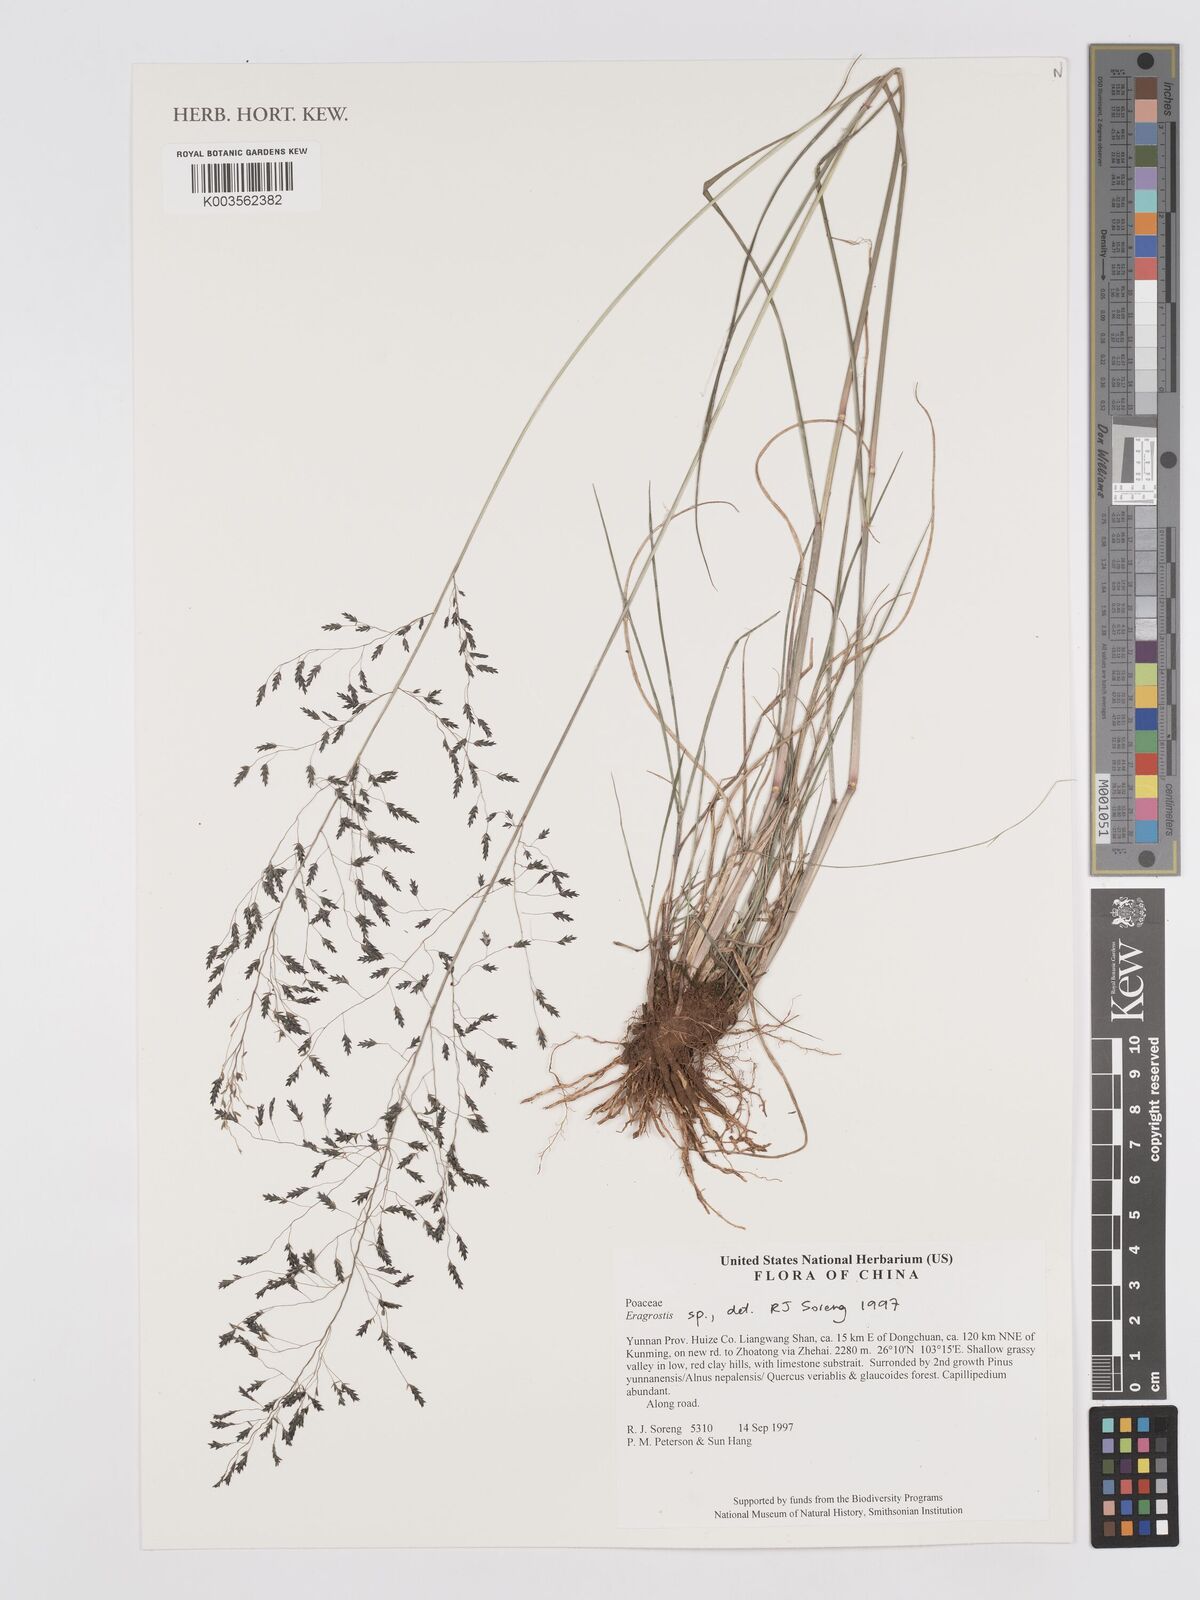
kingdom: Plantae
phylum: Tracheophyta
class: Liliopsida
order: Poales
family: Poaceae
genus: Eragrostis
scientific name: Eragrostis
